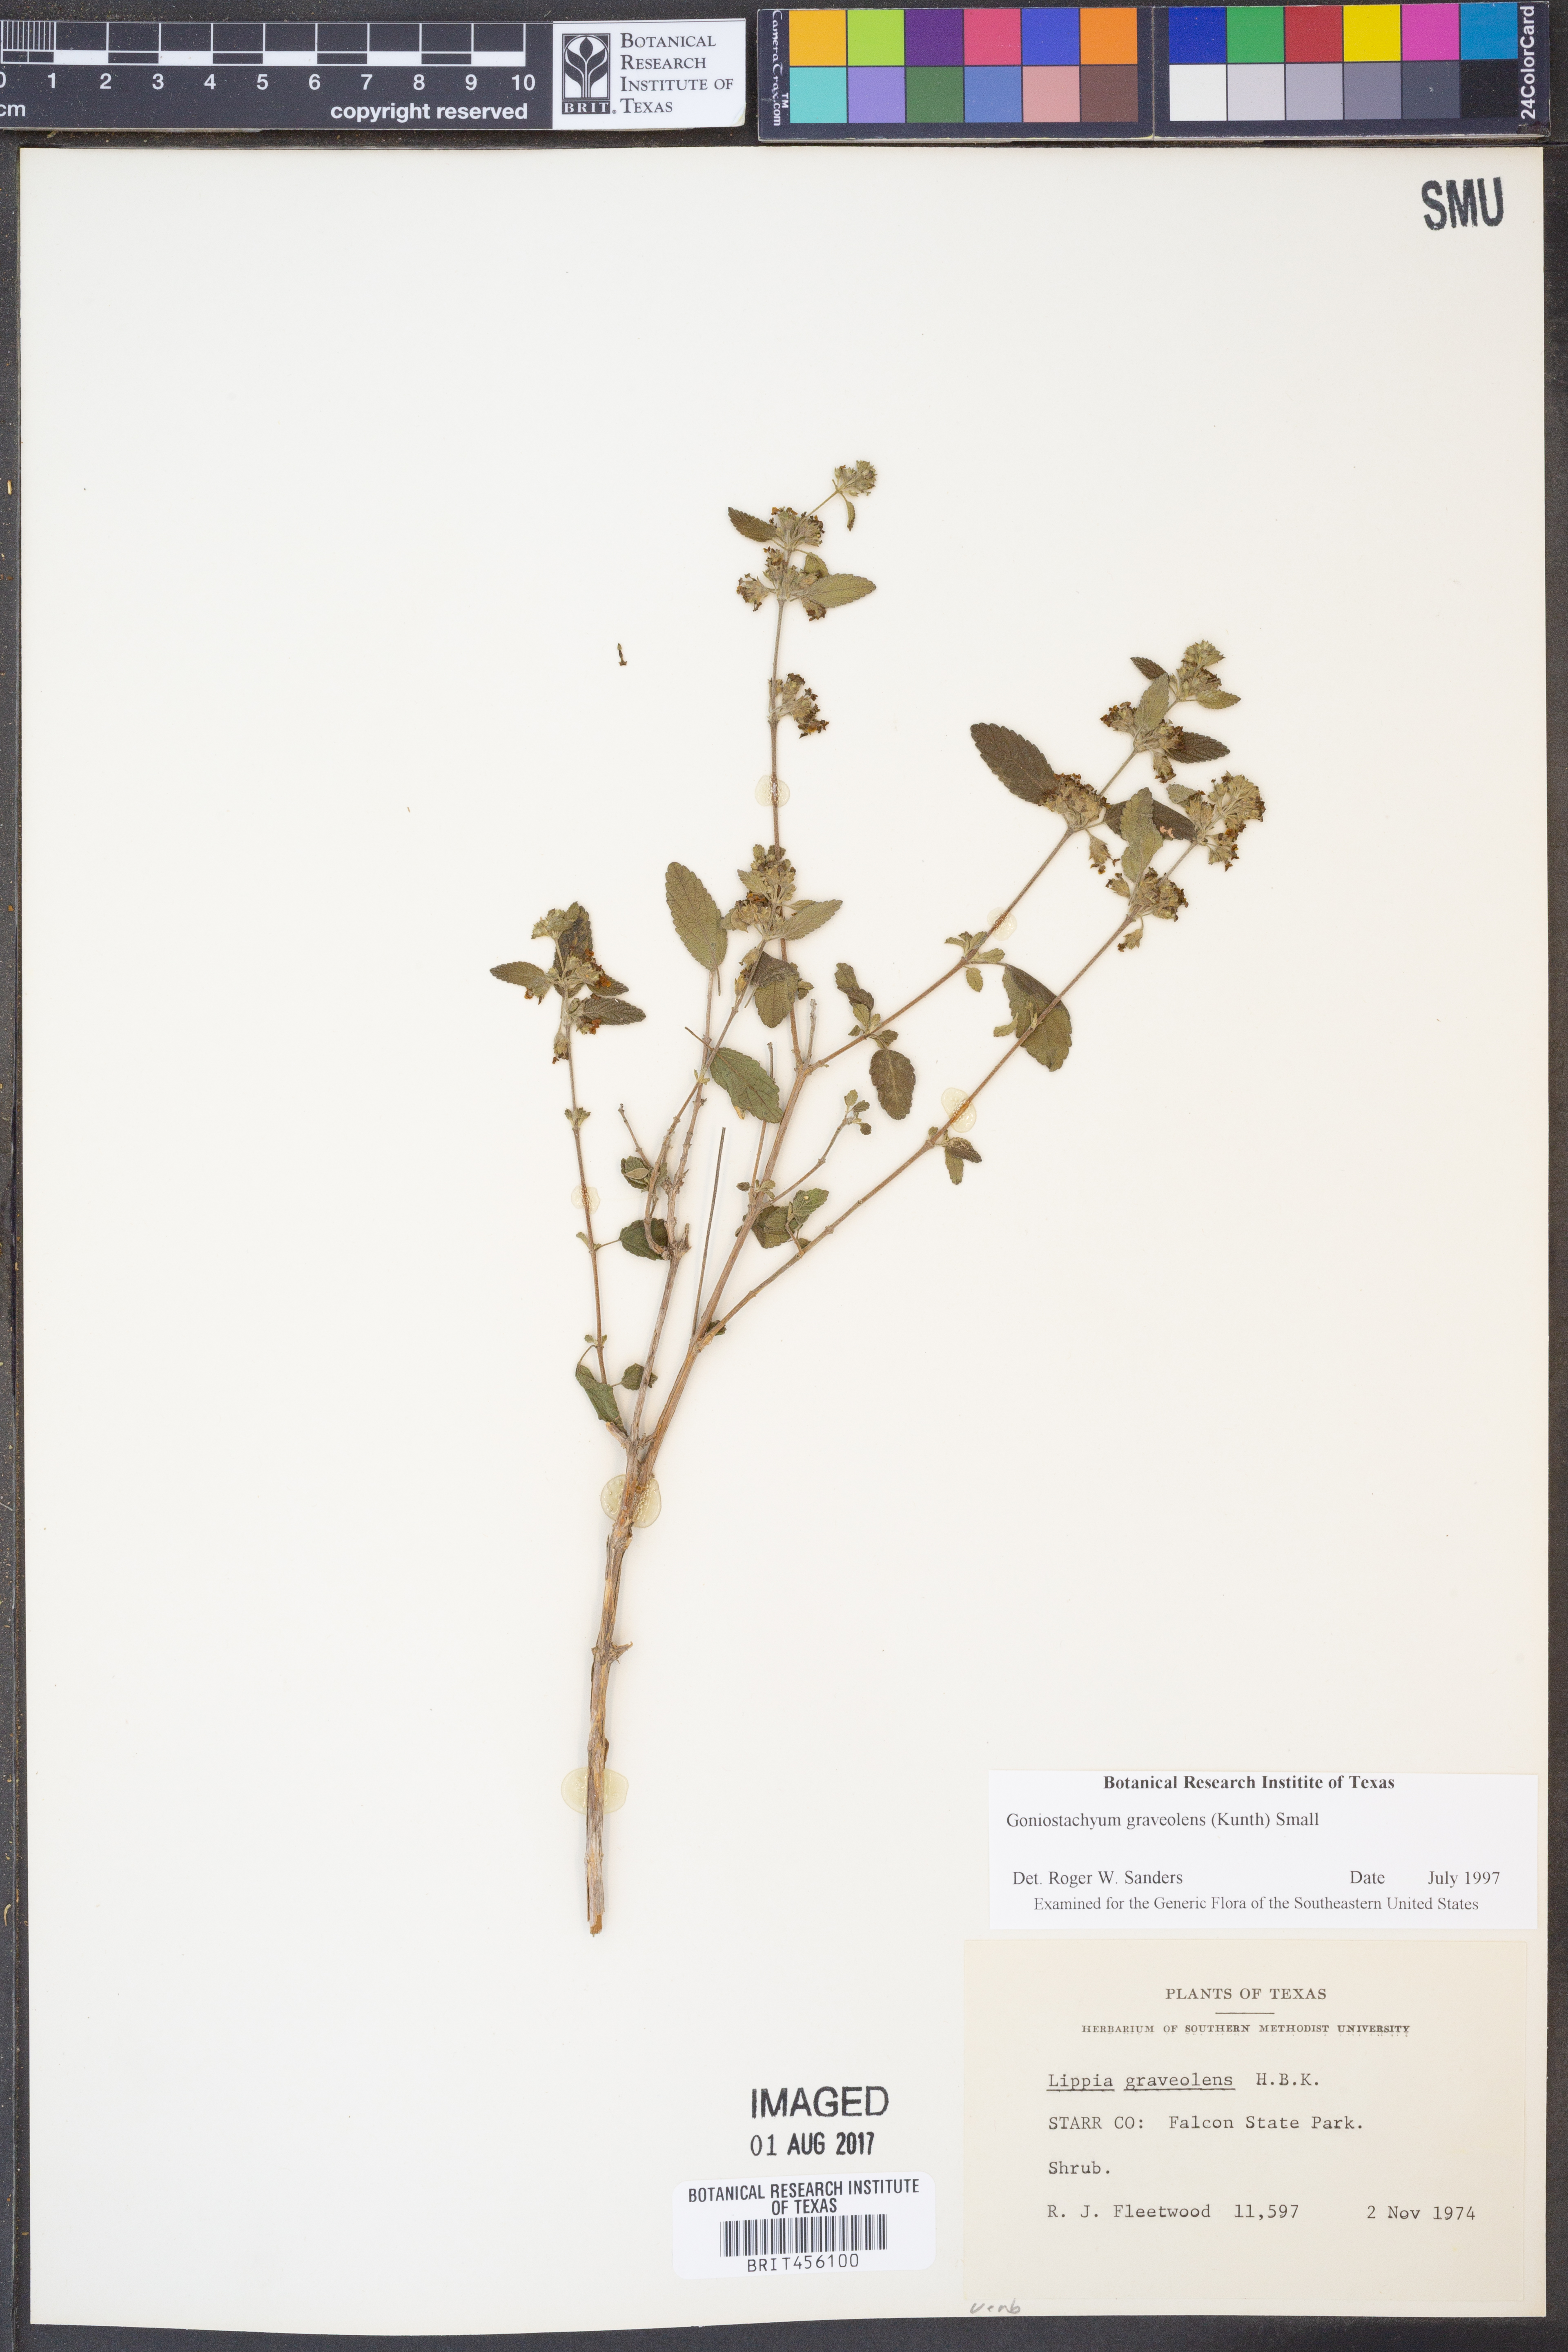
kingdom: Plantae
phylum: Tracheophyta
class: Magnoliopsida
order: Lamiales
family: Verbenaceae
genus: Lippia
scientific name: Lippia origanoides
